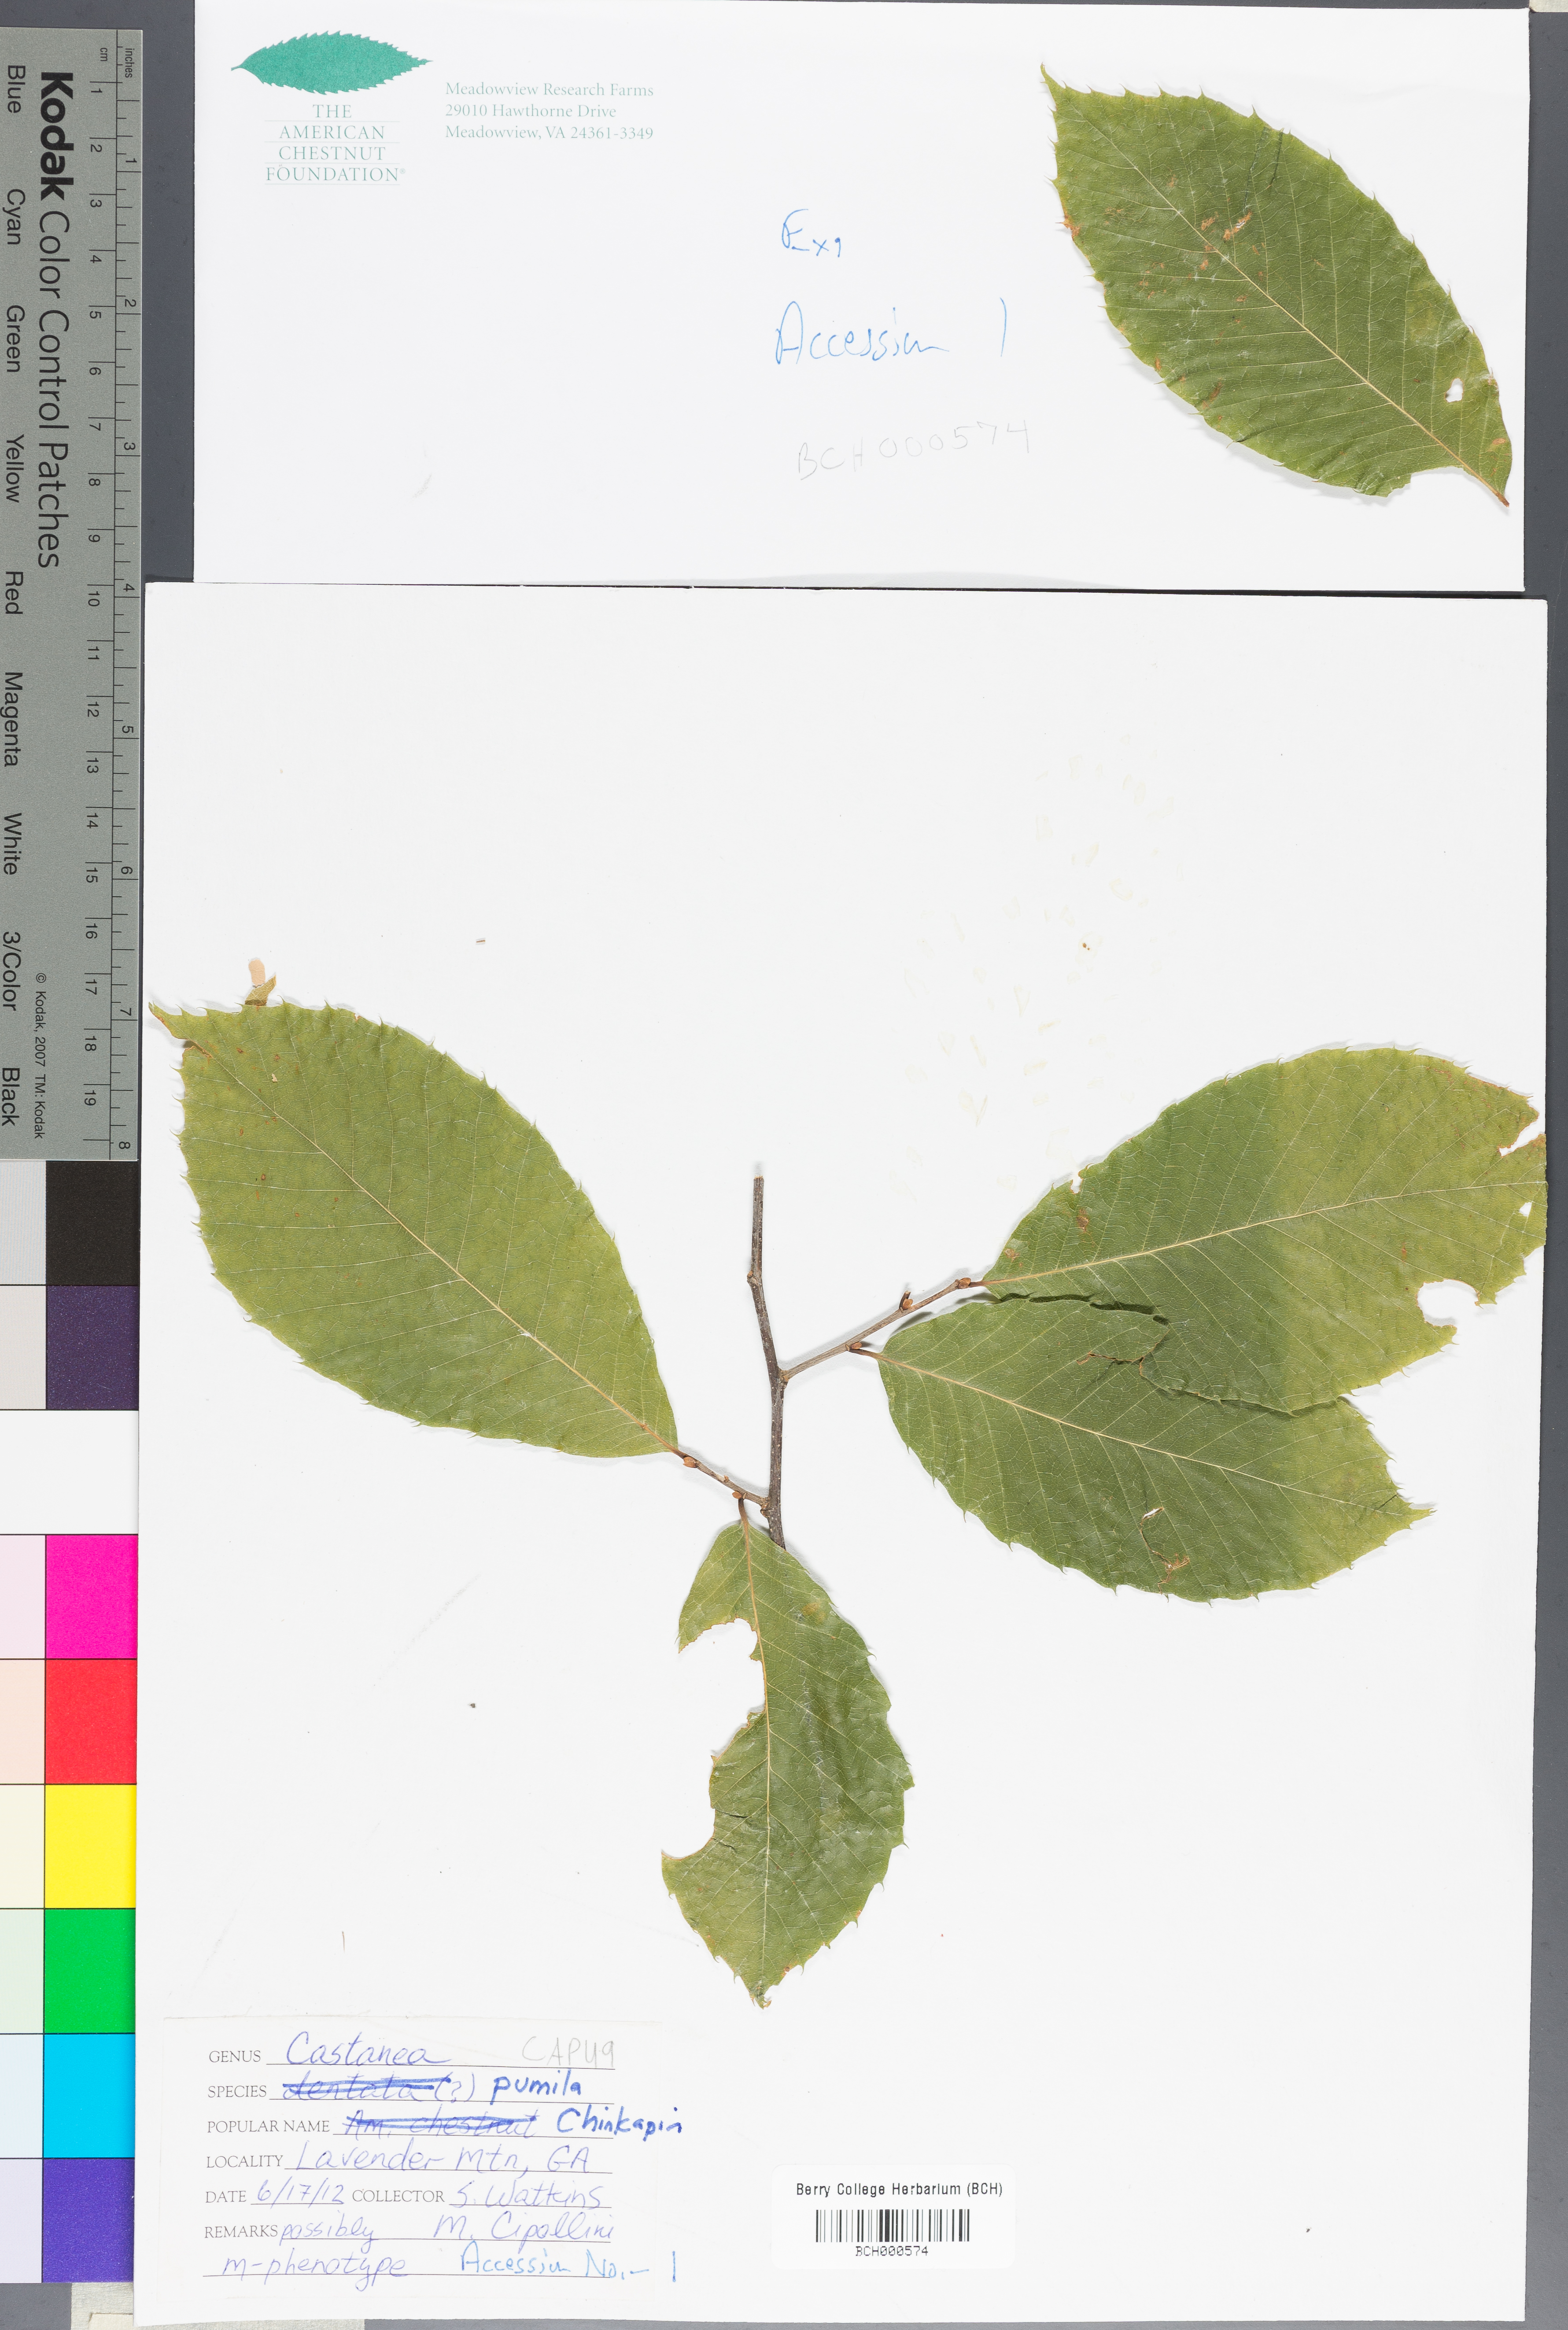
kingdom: Plantae
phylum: Tracheophyta
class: Magnoliopsida
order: Fagales
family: Fagaceae
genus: Castanea
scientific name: Castanea pumila
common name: Chinkapin
